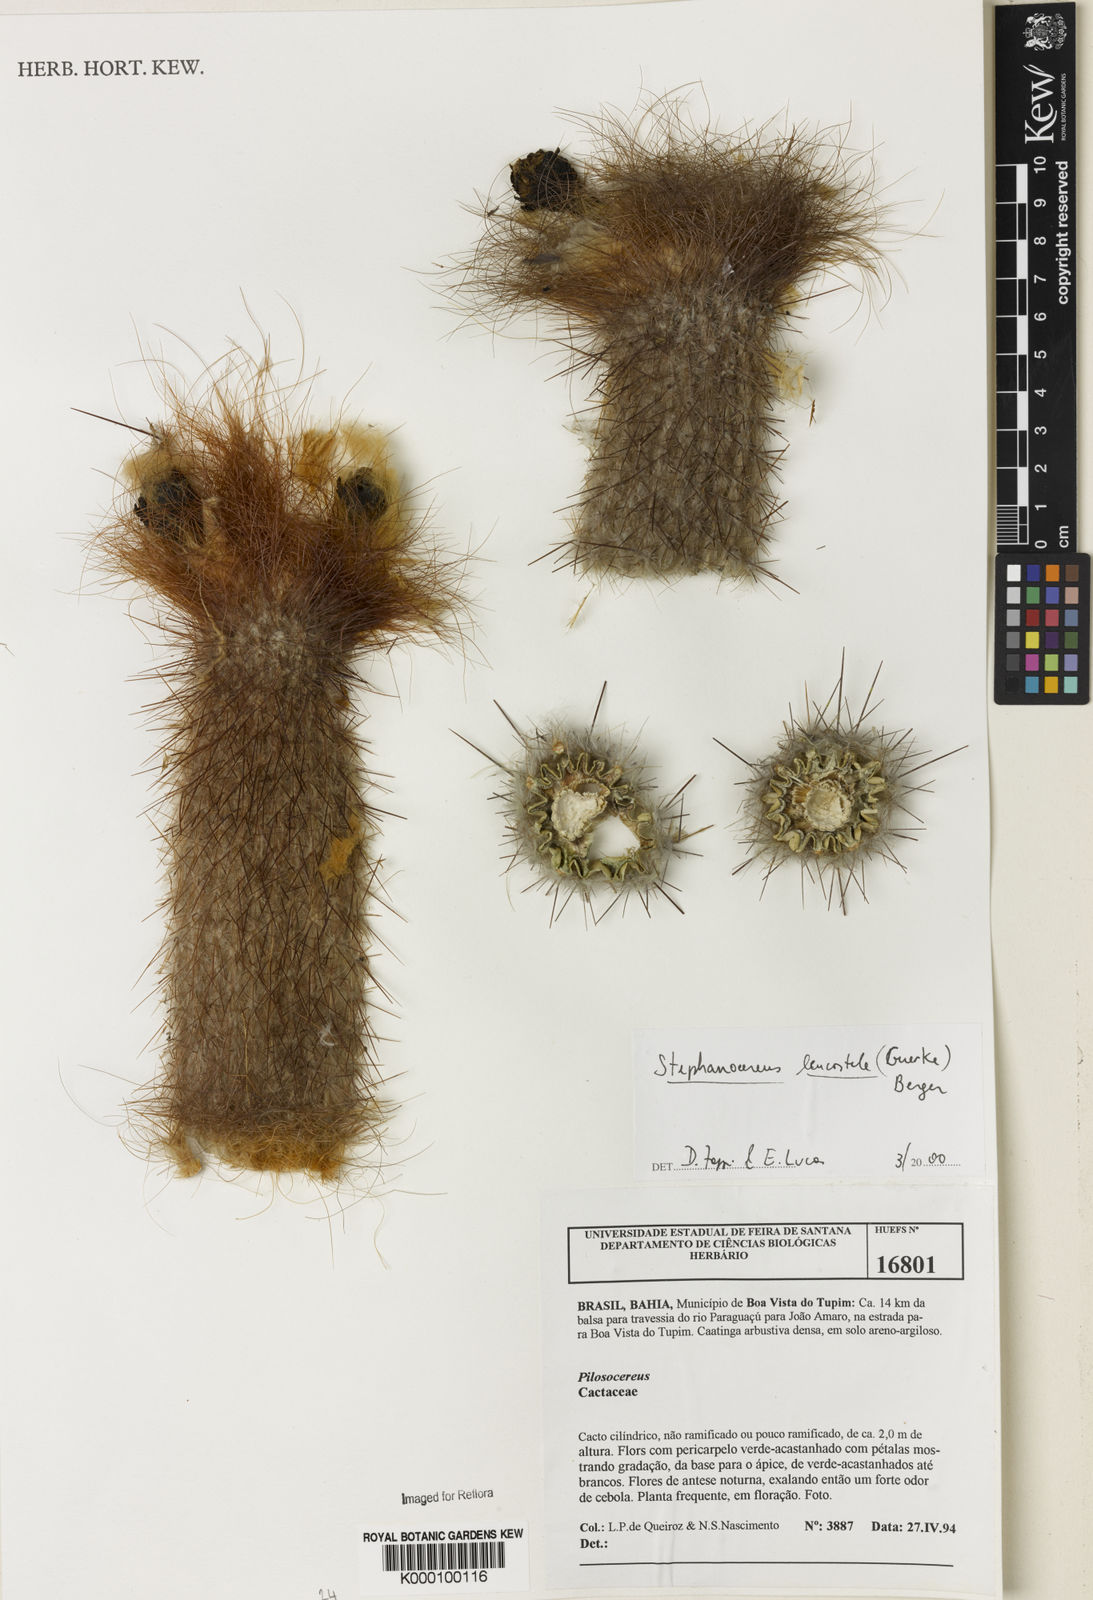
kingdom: Plantae
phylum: Tracheophyta
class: Magnoliopsida
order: Caryophyllales
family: Cactaceae
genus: Arrojadoa
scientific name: Arrojadoa leucostele
